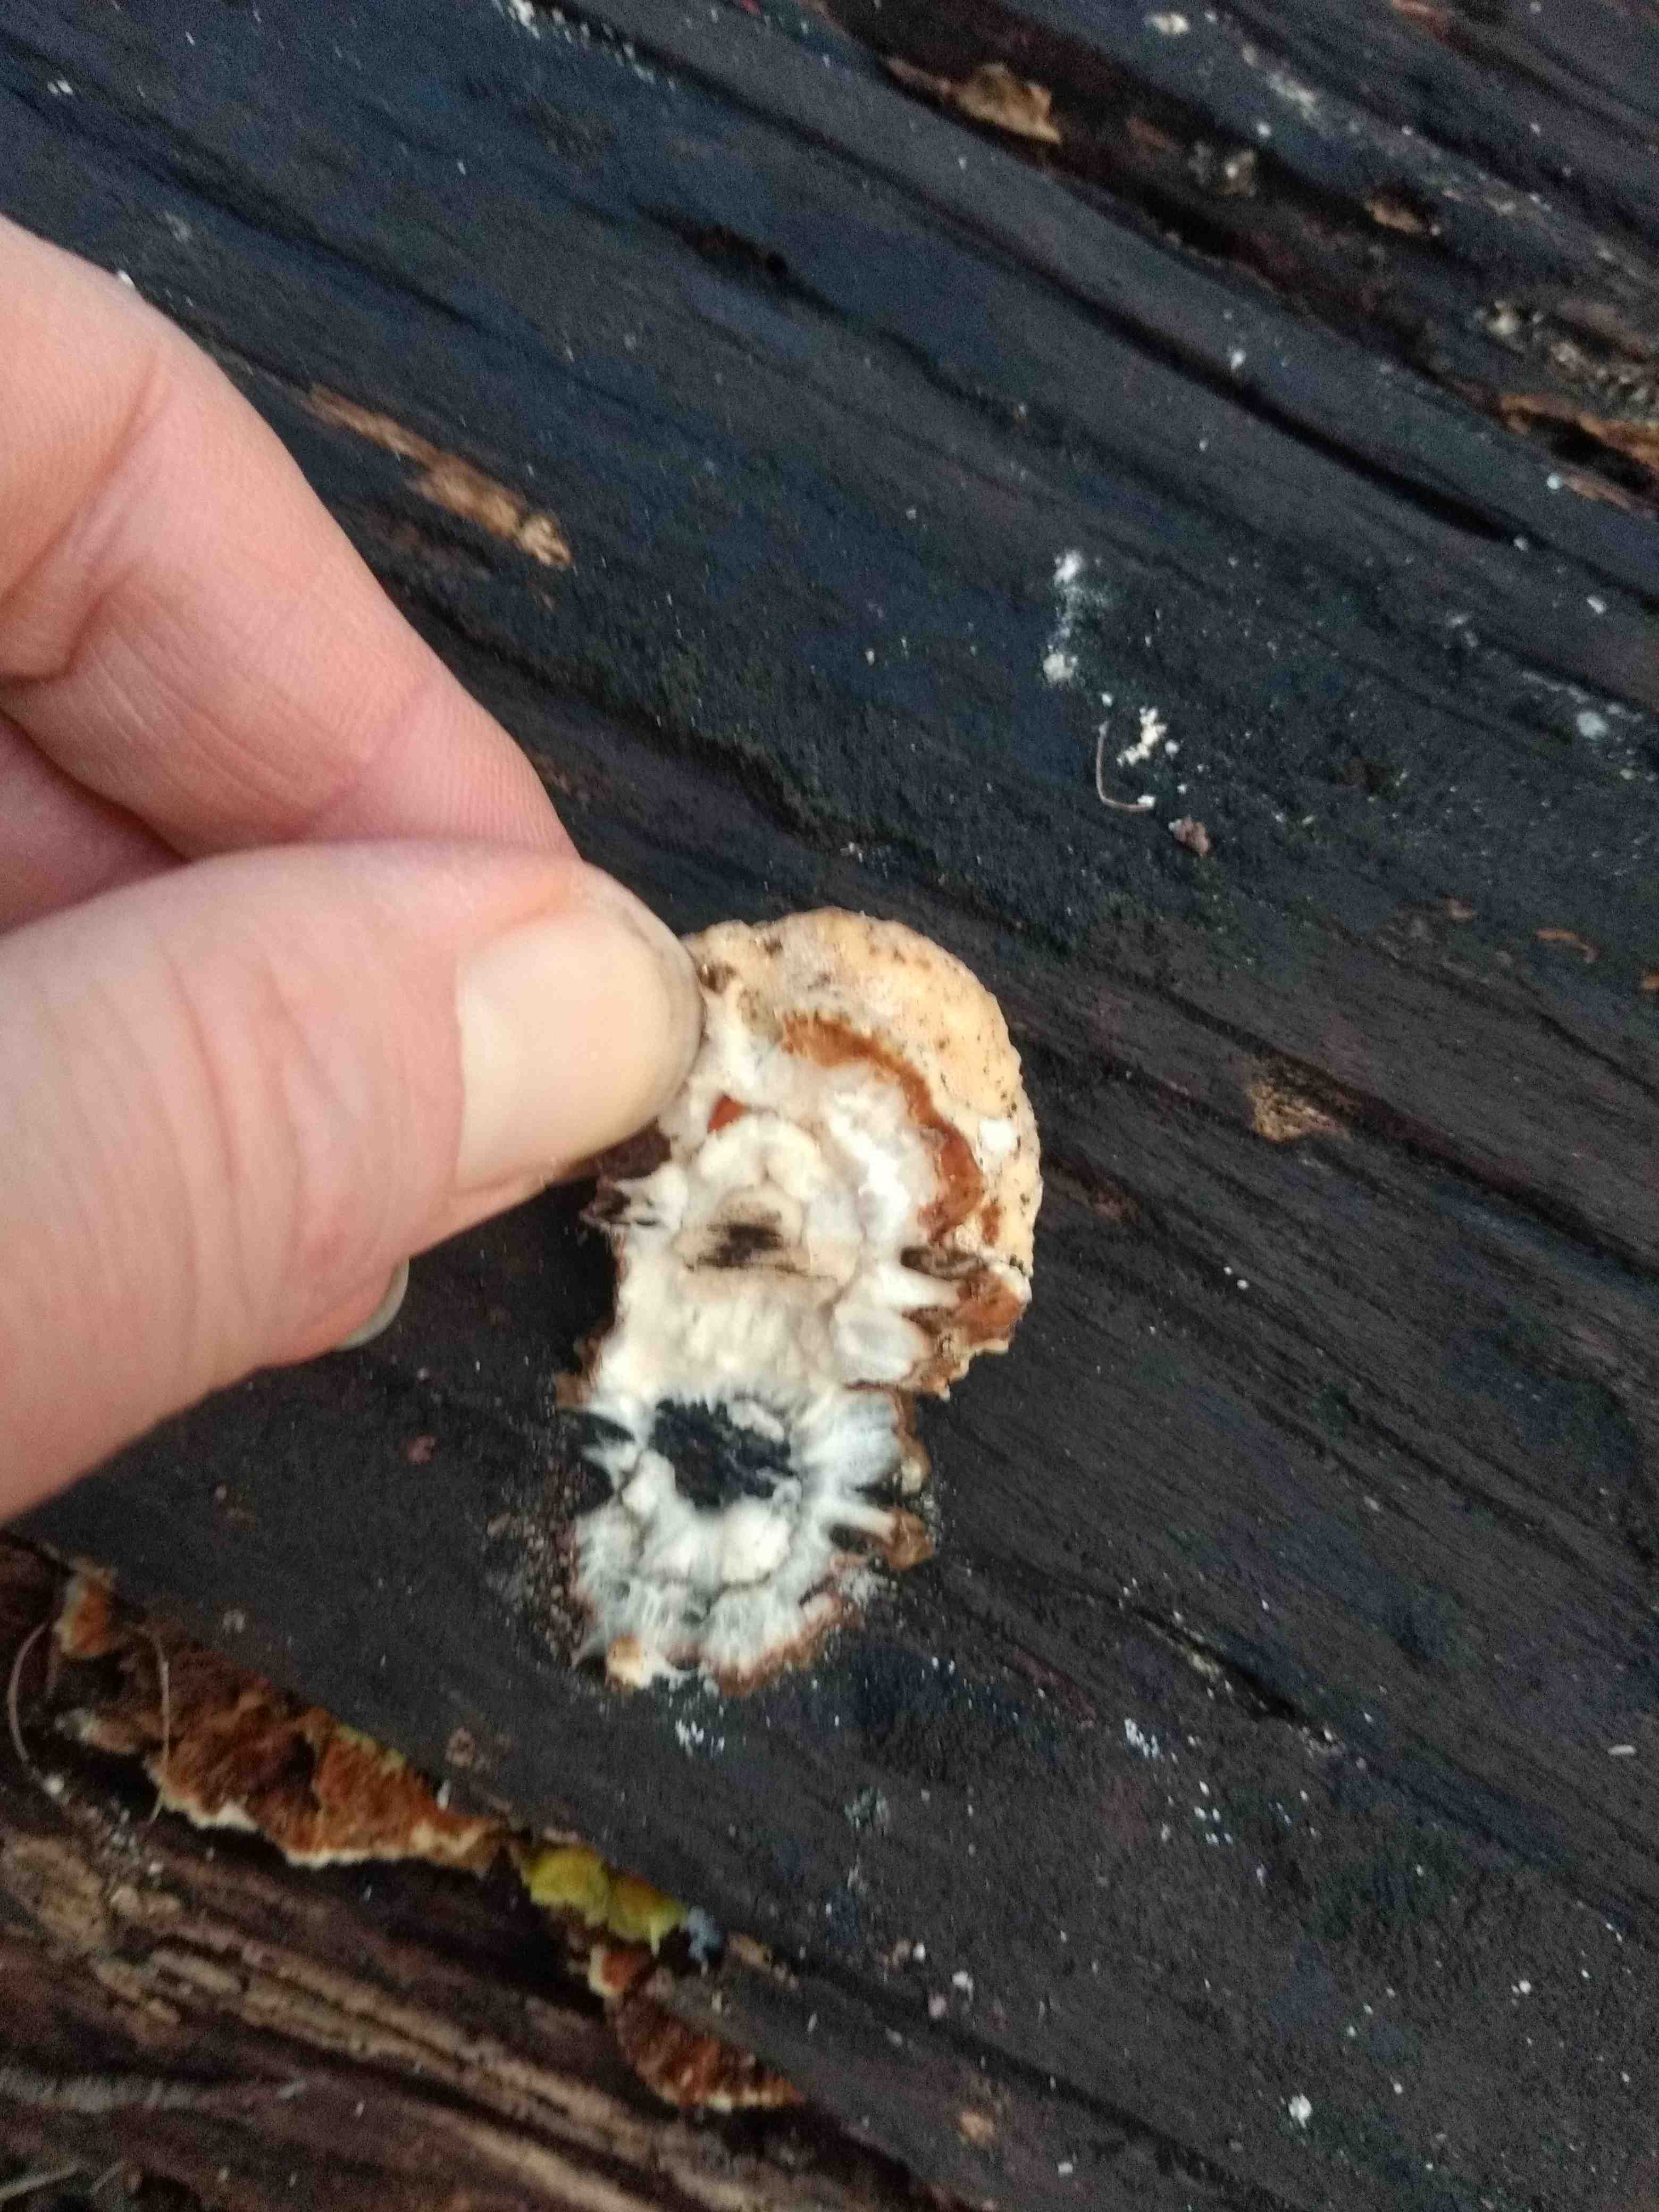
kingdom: Fungi
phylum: Basidiomycota
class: Agaricomycetes
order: Polyporales
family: Polyporaceae
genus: Trametes
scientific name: Trametes versicolor
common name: broget læderporesvamp
